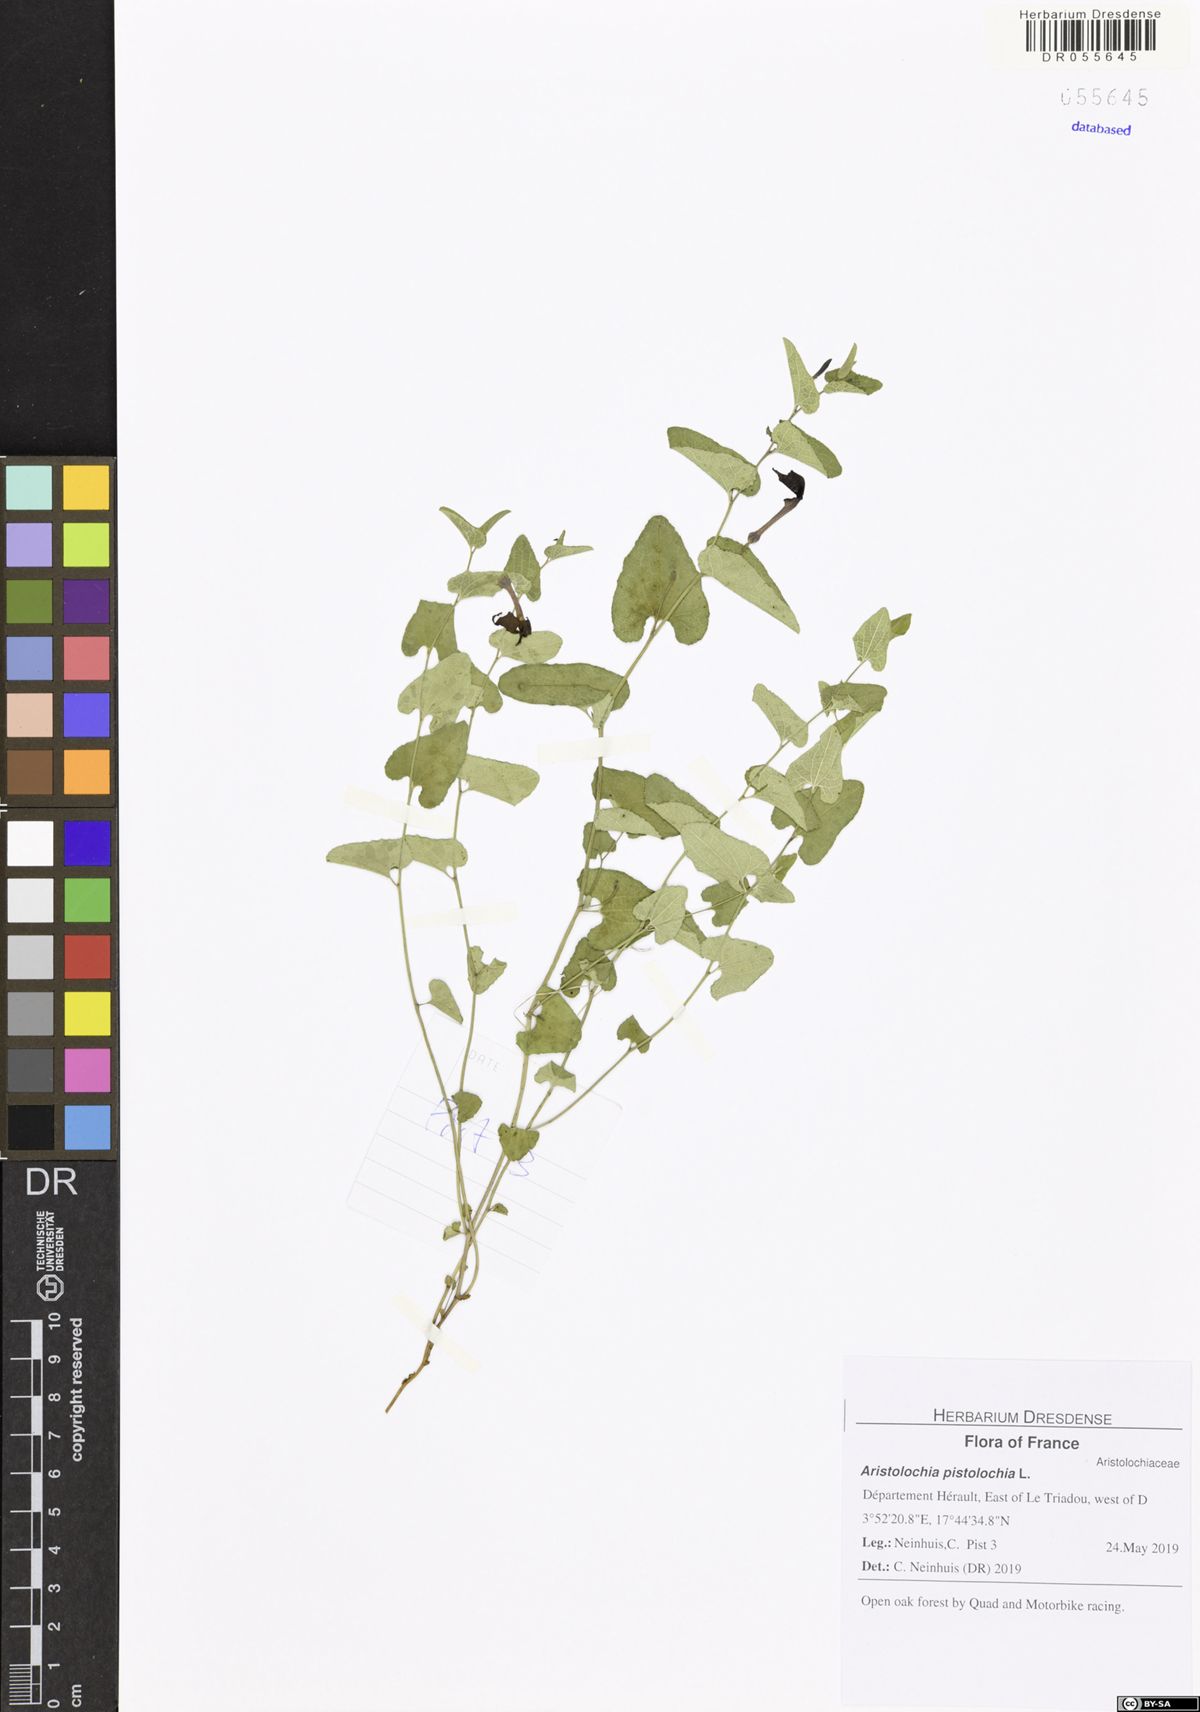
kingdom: Plantae
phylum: Tracheophyta
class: Magnoliopsida
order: Piperales
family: Aristolochiaceae
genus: Aristolochia
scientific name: Aristolochia pistolochia
